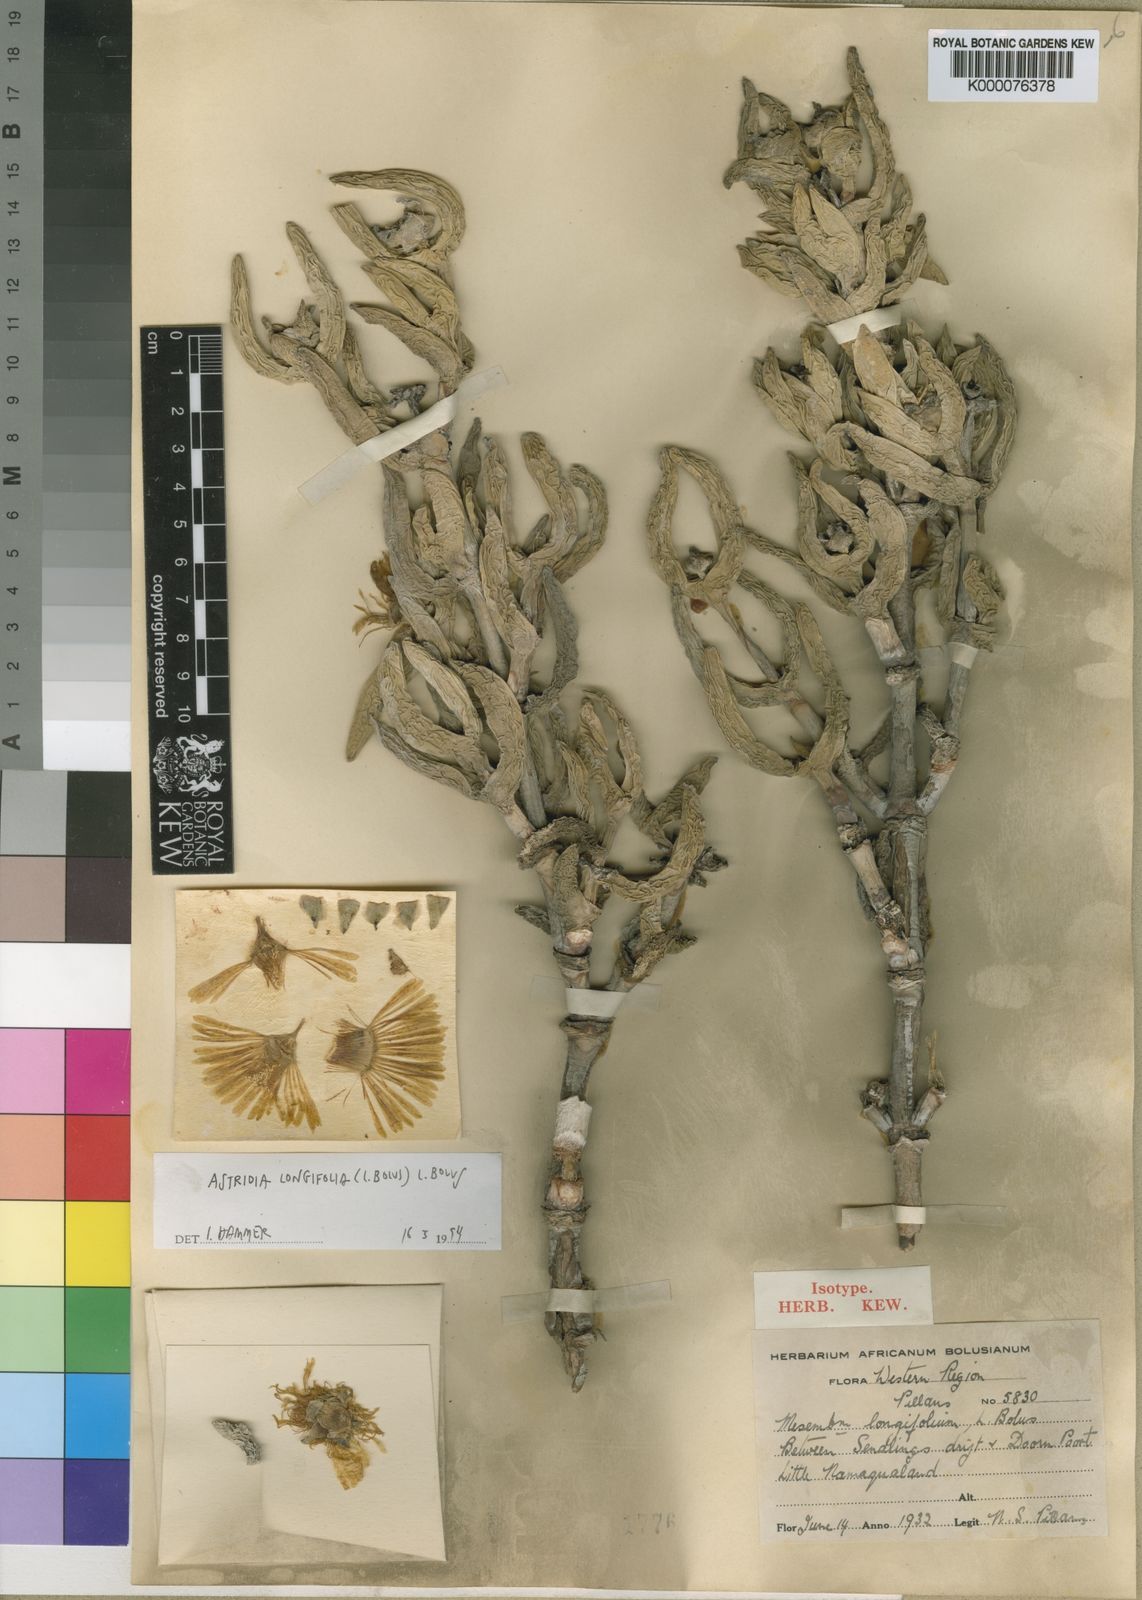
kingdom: Plantae
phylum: Tracheophyta
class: Magnoliopsida
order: Caryophyllales
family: Aizoaceae
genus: Astridia
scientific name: Astridia longifolia
